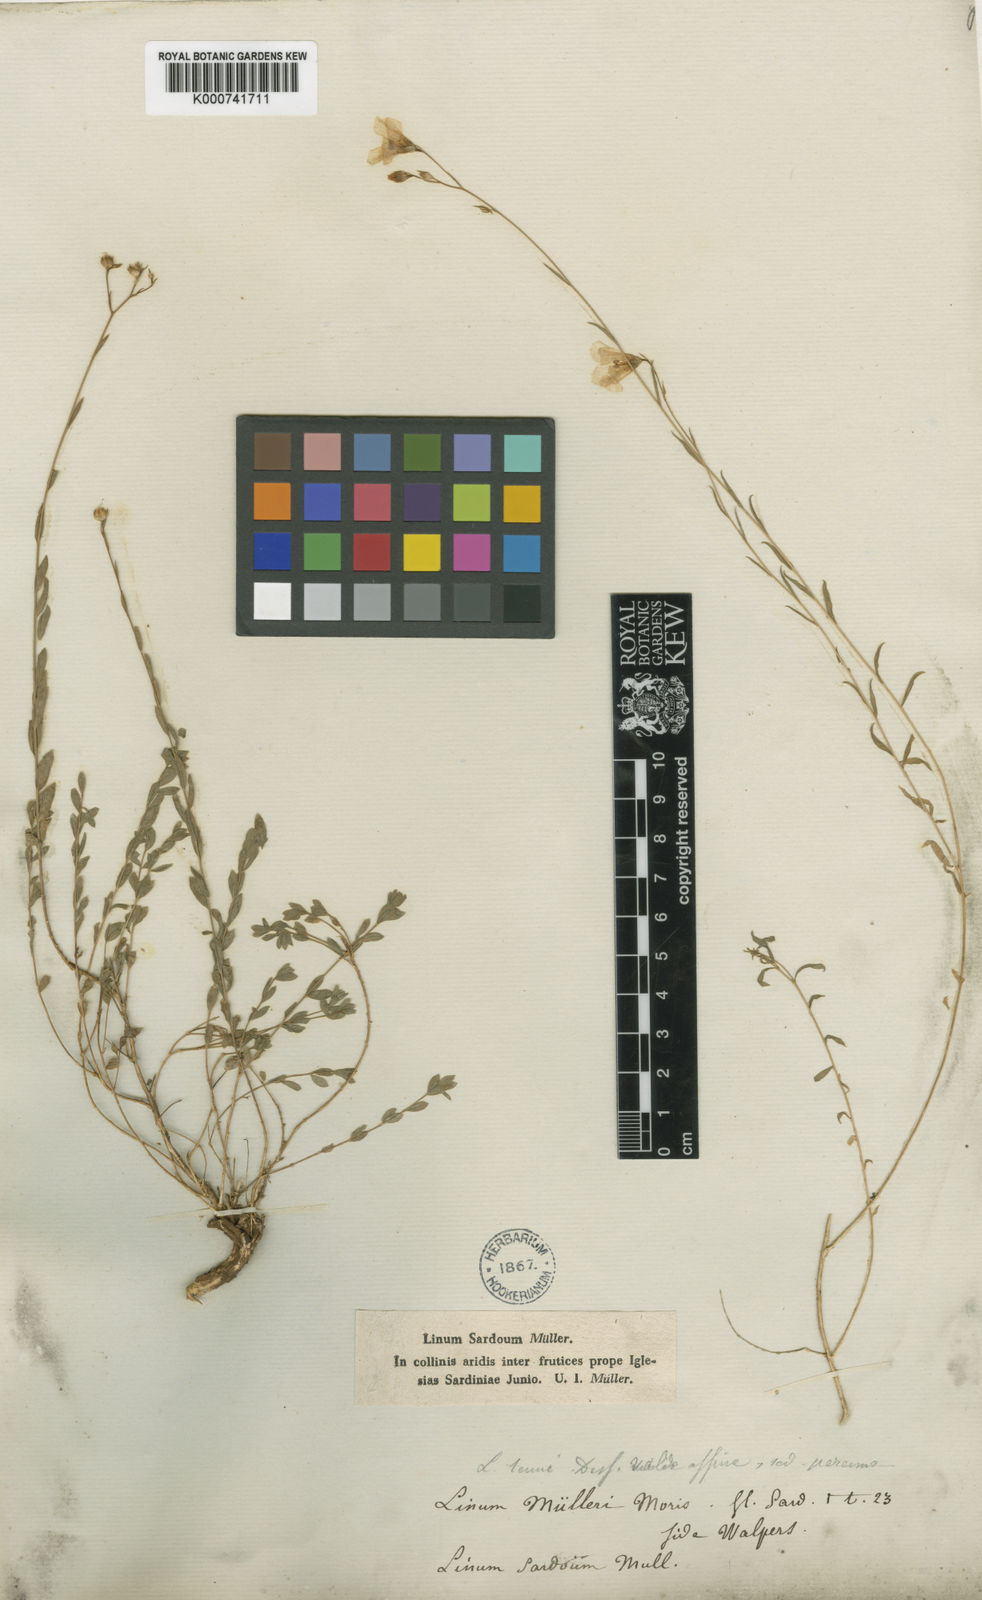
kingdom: Plantae
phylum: Tracheophyta
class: Magnoliopsida
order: Malpighiales
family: Linaceae
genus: Linum
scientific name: Linum maritimum
